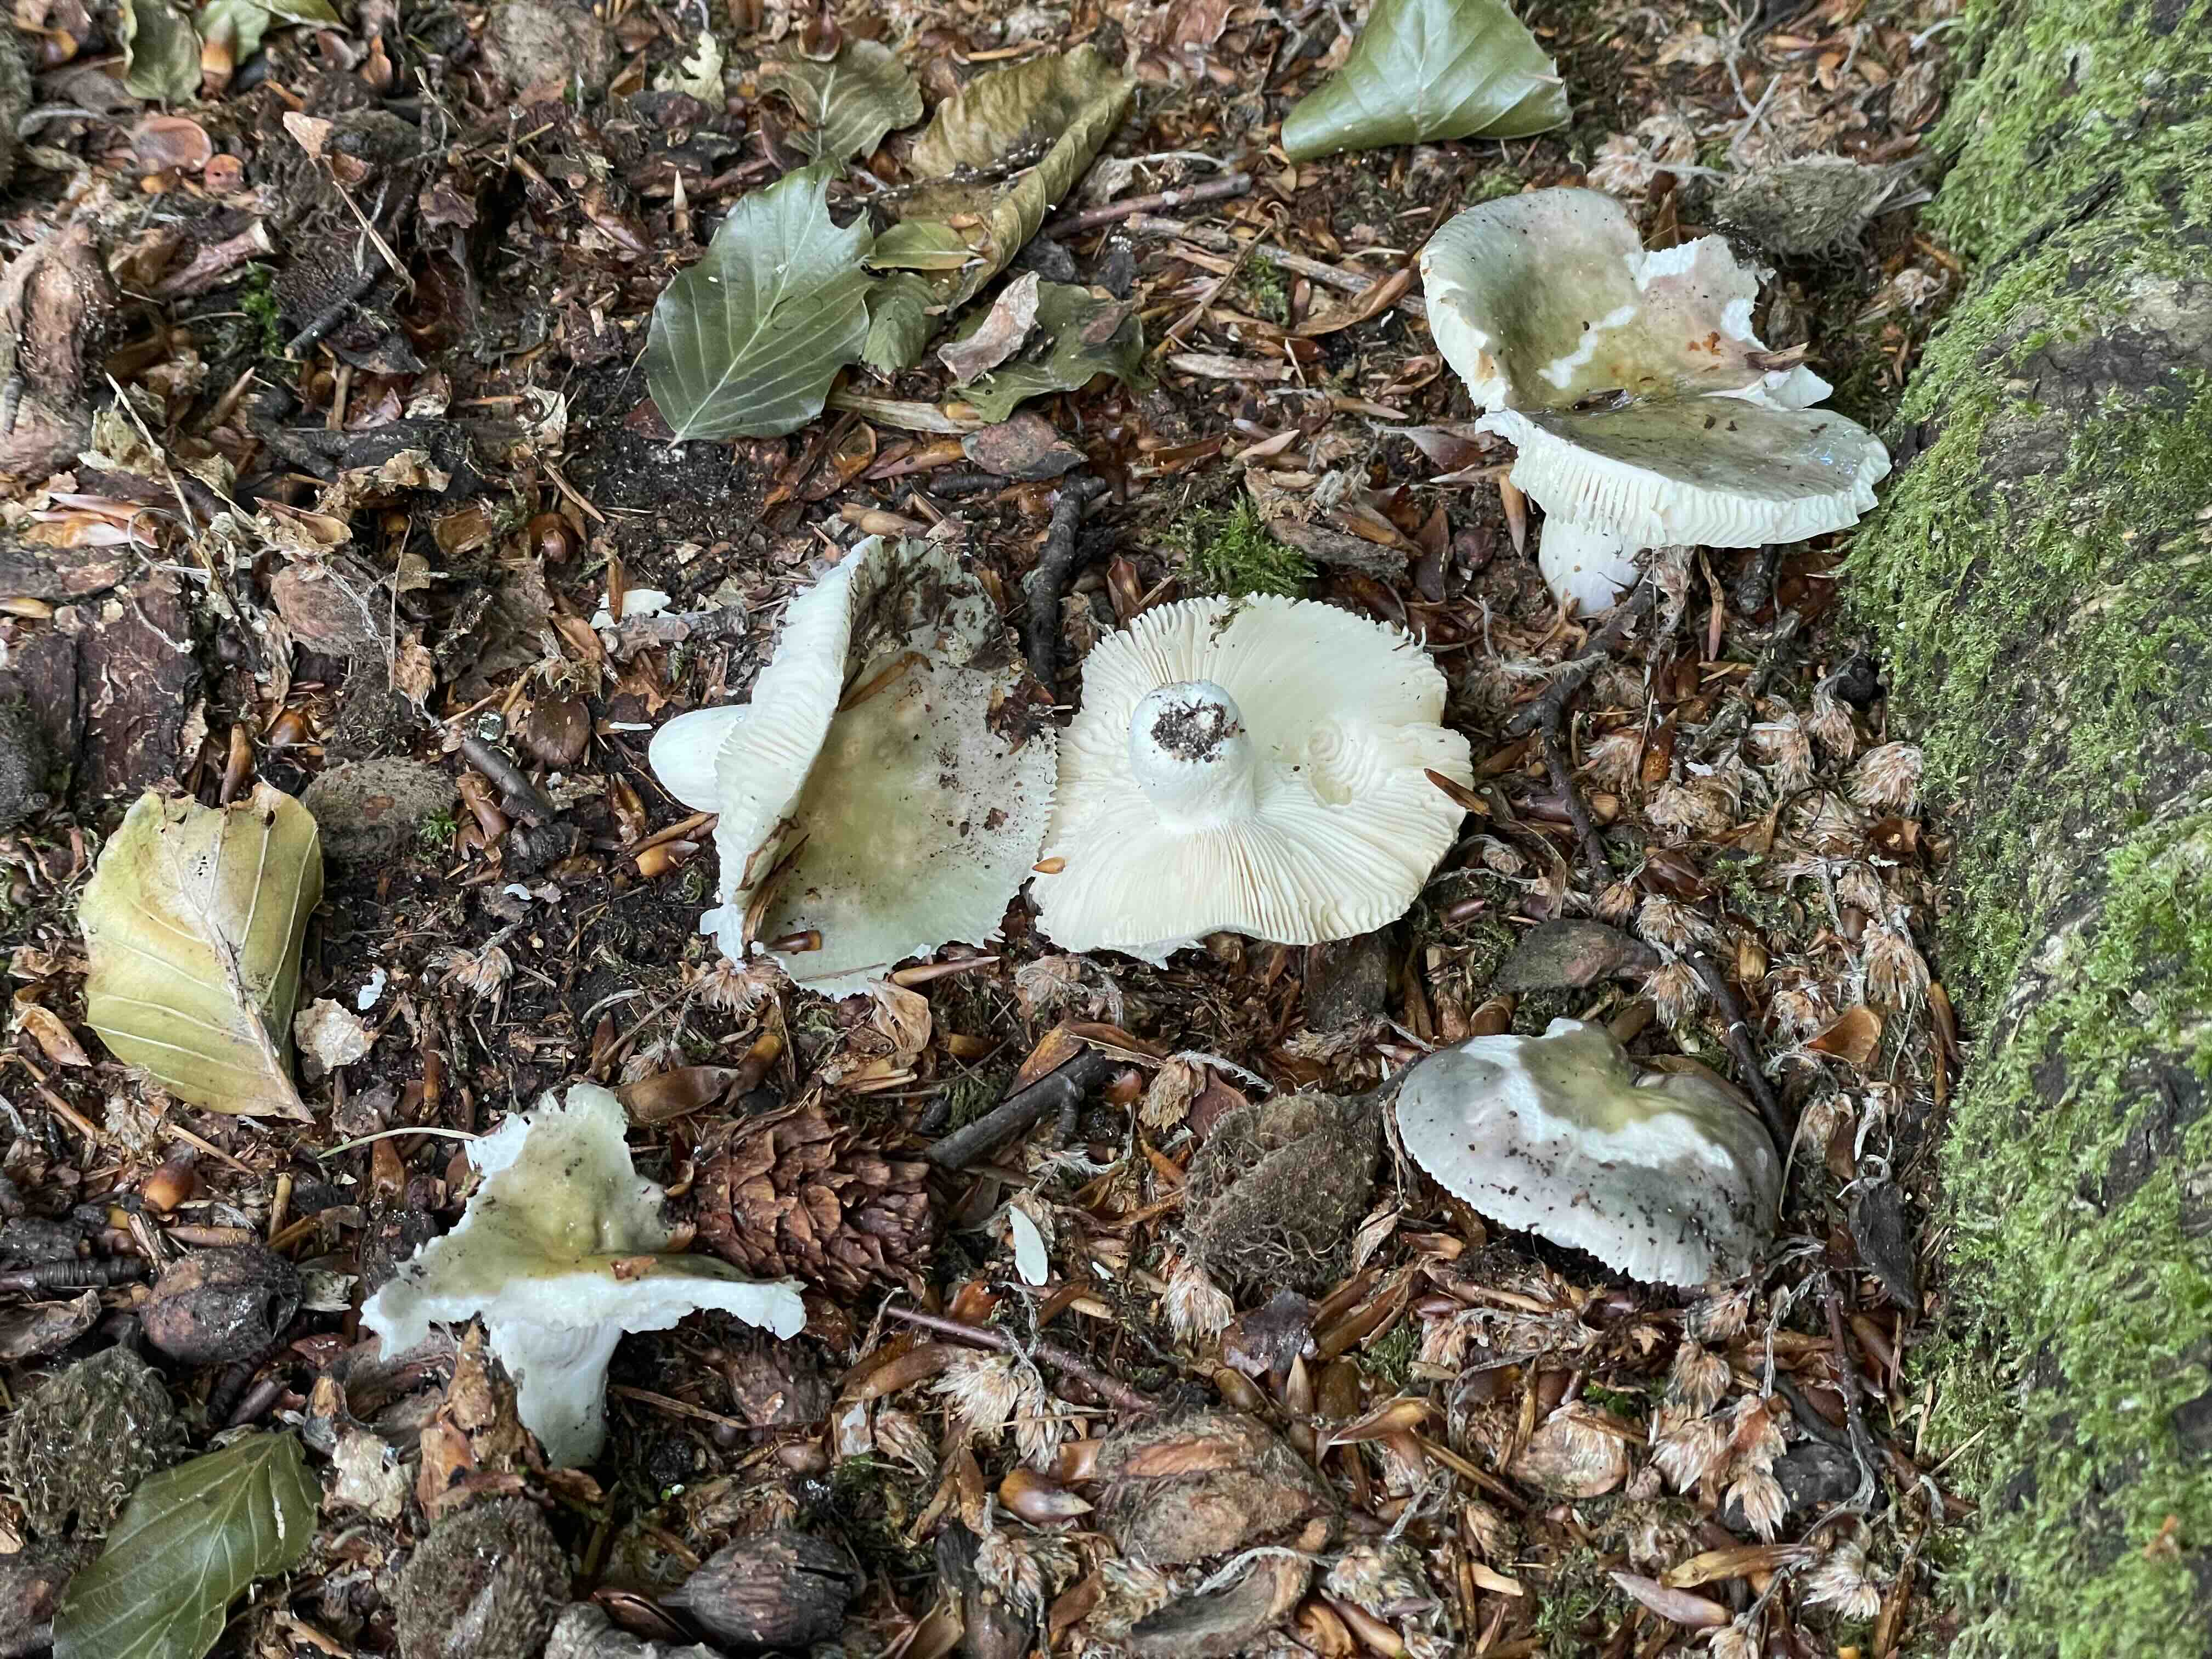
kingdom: Fungi
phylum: Basidiomycota
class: Agaricomycetes
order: Russulales
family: Russulaceae
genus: Russula
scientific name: Russula
